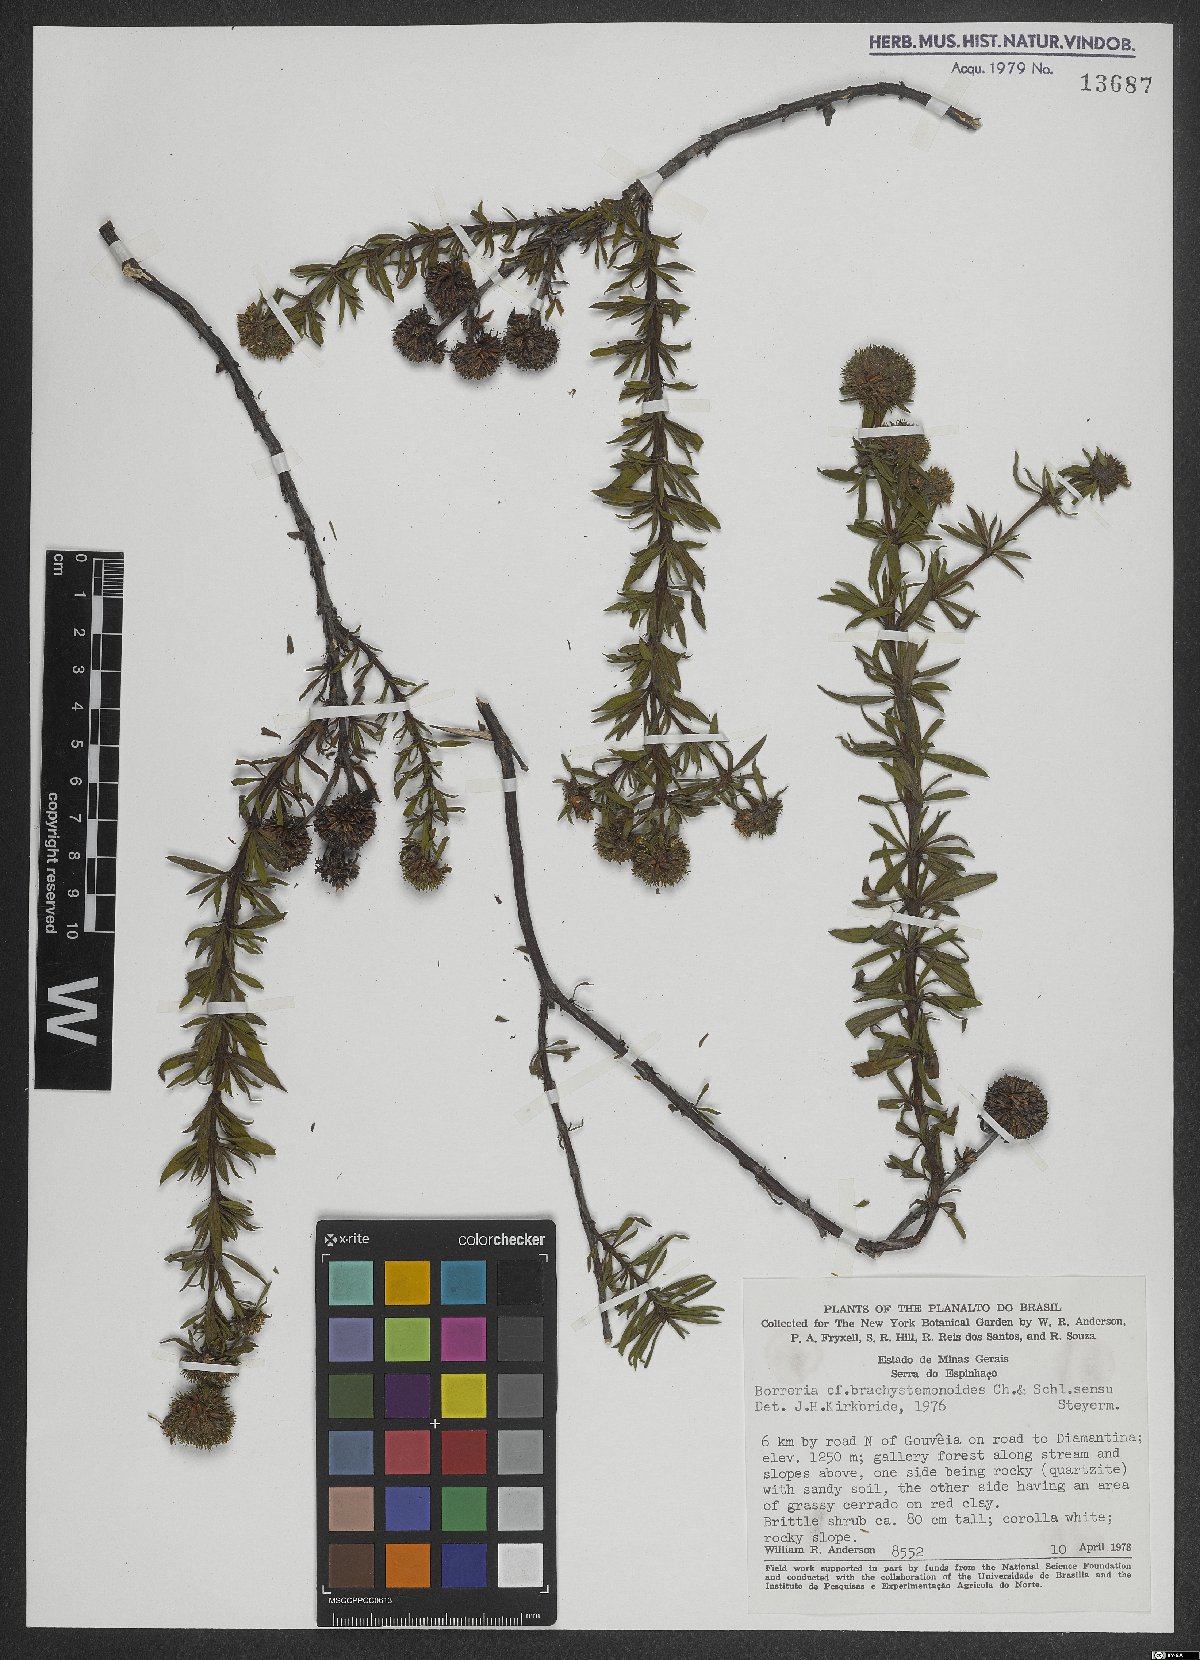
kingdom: Plantae
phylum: Tracheophyta
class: Magnoliopsida
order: Gentianales
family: Rubiaceae
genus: Spermacoce
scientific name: Spermacoce brachystemonoides
